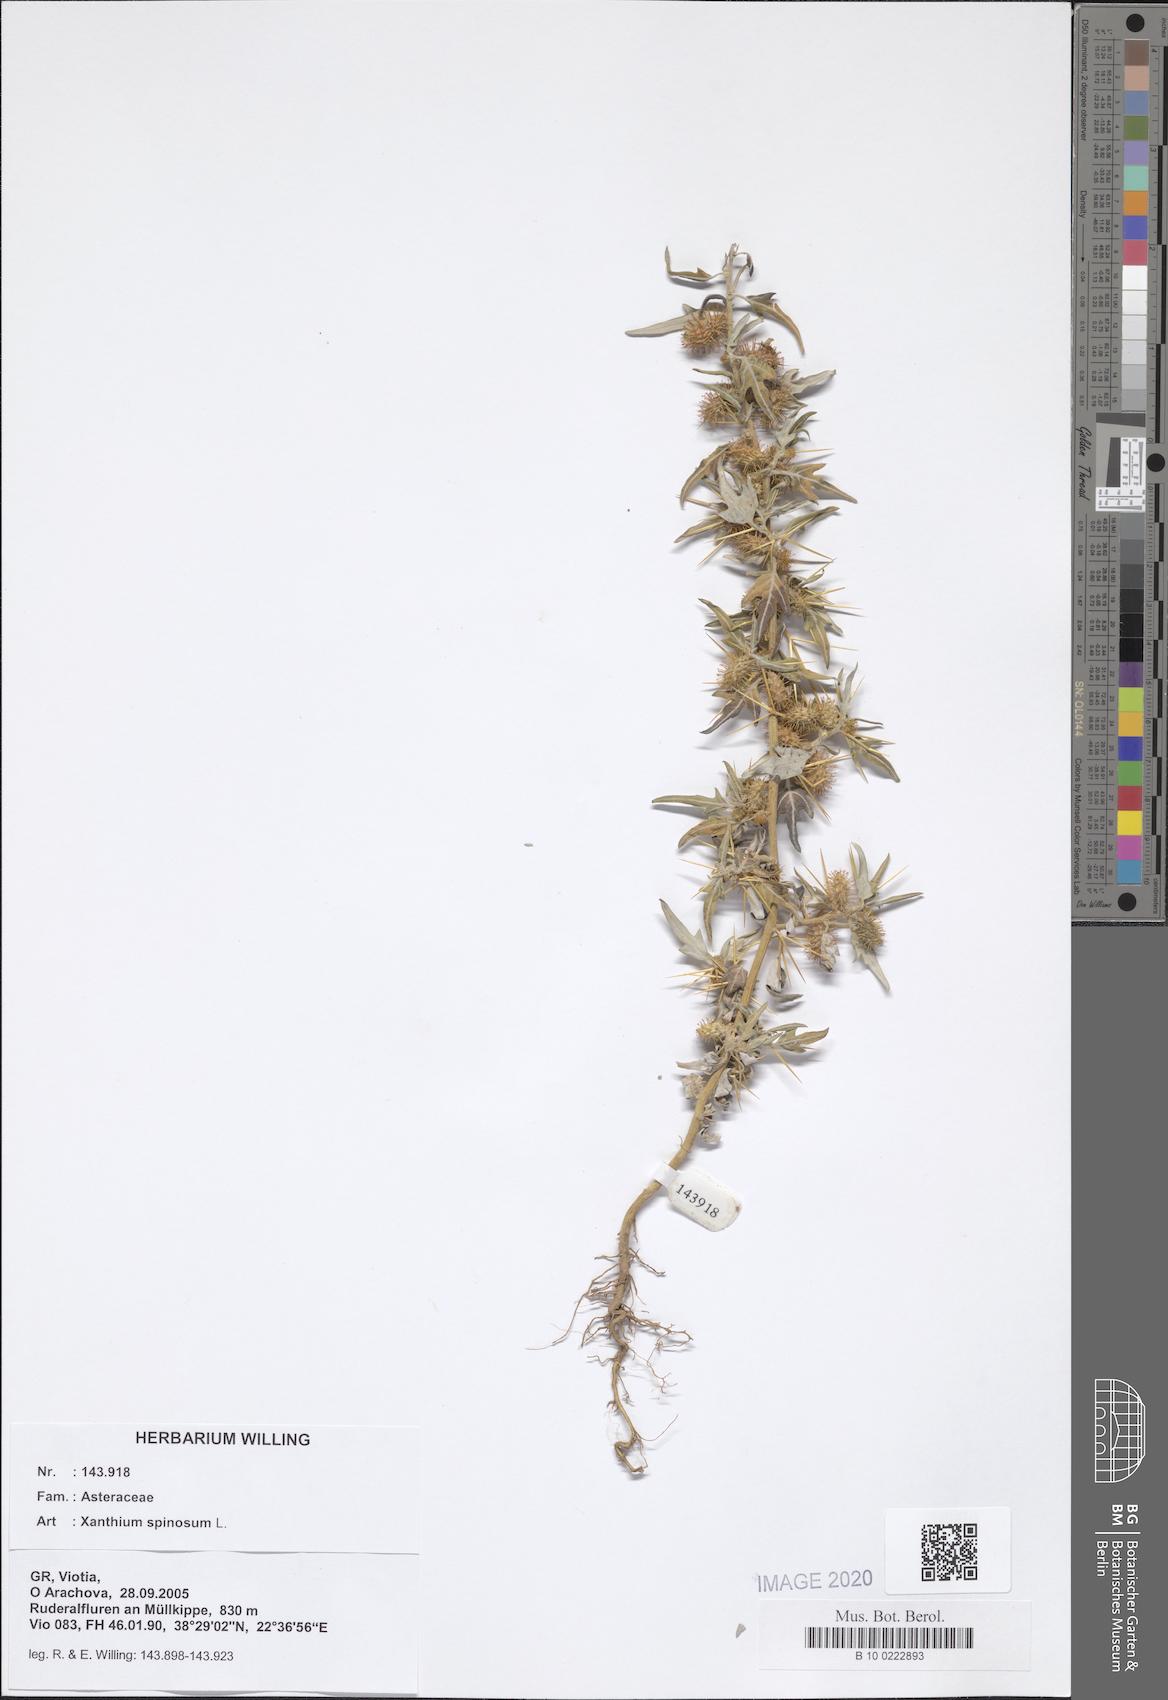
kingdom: Plantae
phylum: Tracheophyta
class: Magnoliopsida
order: Asterales
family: Asteraceae
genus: Xanthium
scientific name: Xanthium spinosum
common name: Spiny cocklebur
